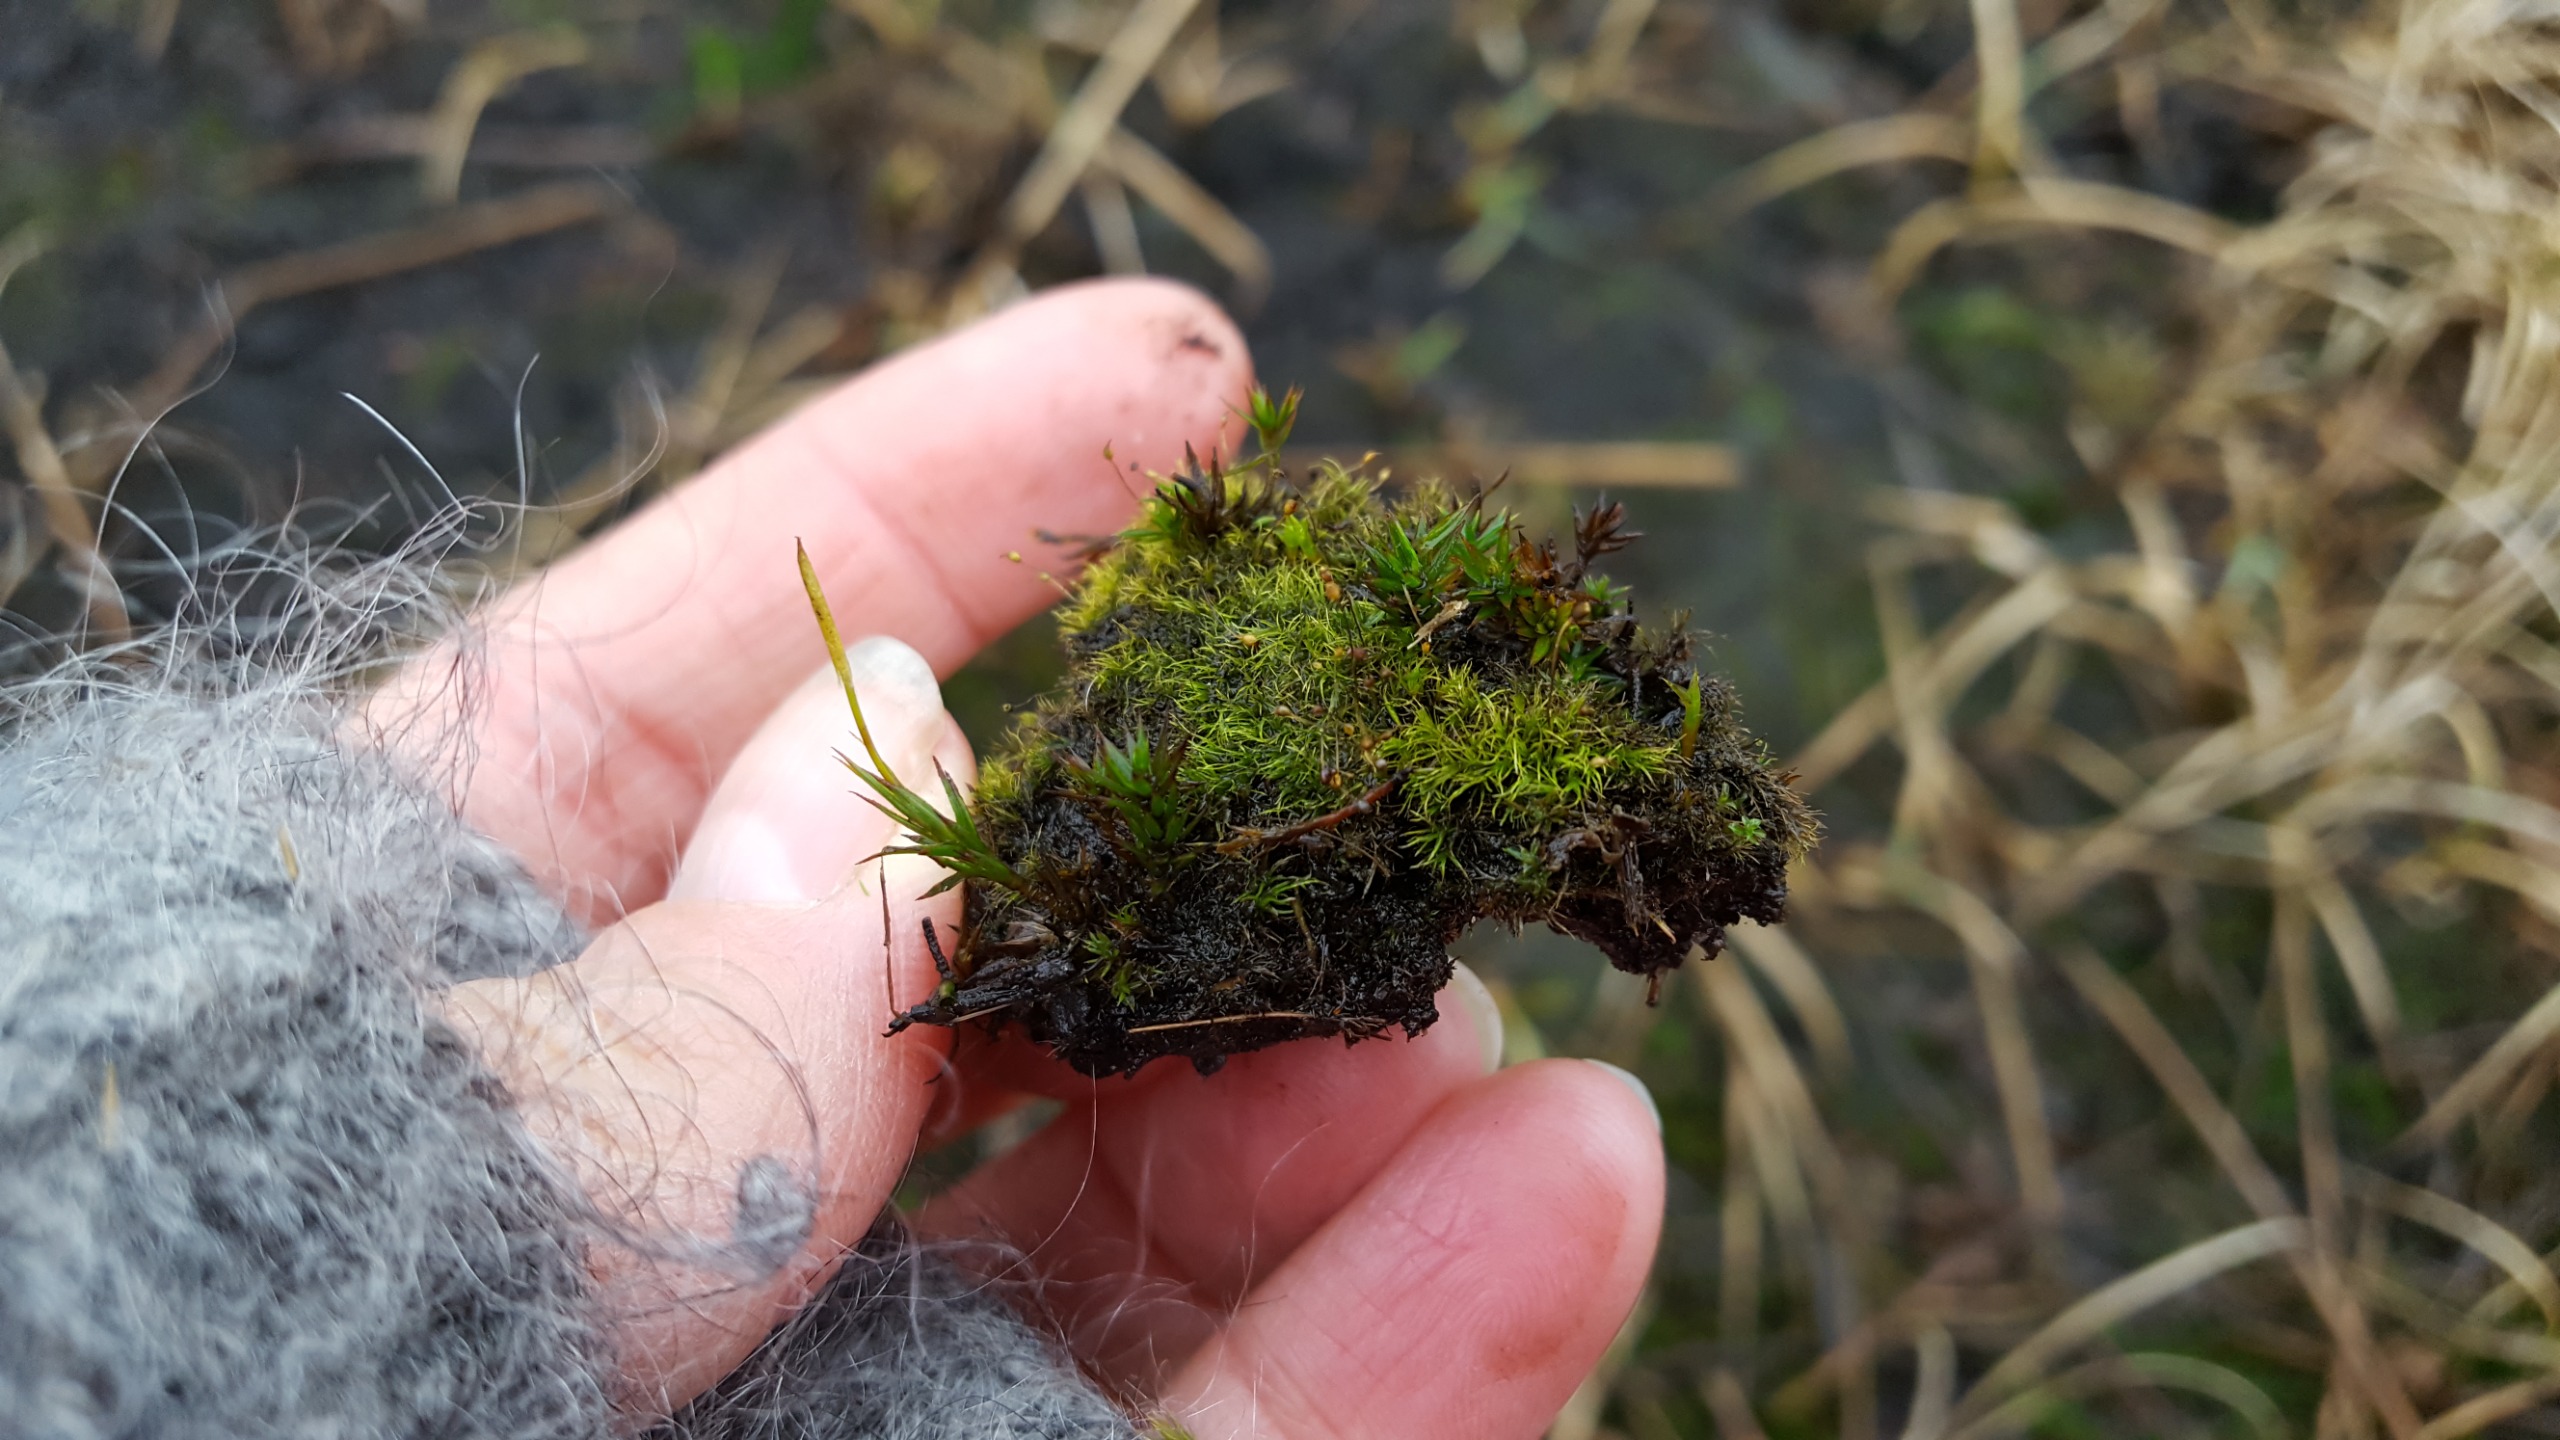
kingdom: Plantae
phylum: Bryophyta
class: Bryopsida
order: Dicranales
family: Dicranellaceae
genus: Dicranella
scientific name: Dicranella cerviculata
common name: Mose-fløjlsmos
